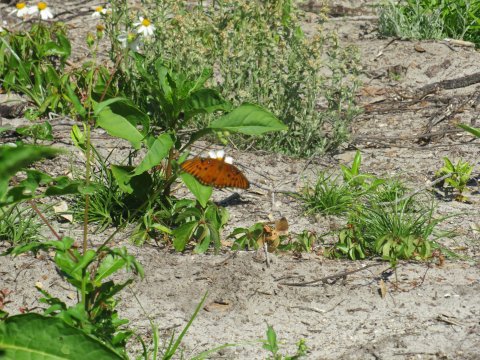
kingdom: Animalia
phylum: Arthropoda
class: Insecta
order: Lepidoptera
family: Nymphalidae
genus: Dione
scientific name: Dione vanillae
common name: Gulf Fritillary
